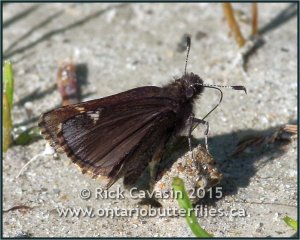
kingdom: Animalia
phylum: Arthropoda
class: Insecta
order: Lepidoptera
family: Hesperiidae
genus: Mastor
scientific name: Mastor vialis
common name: Common Roadside-Skipper
